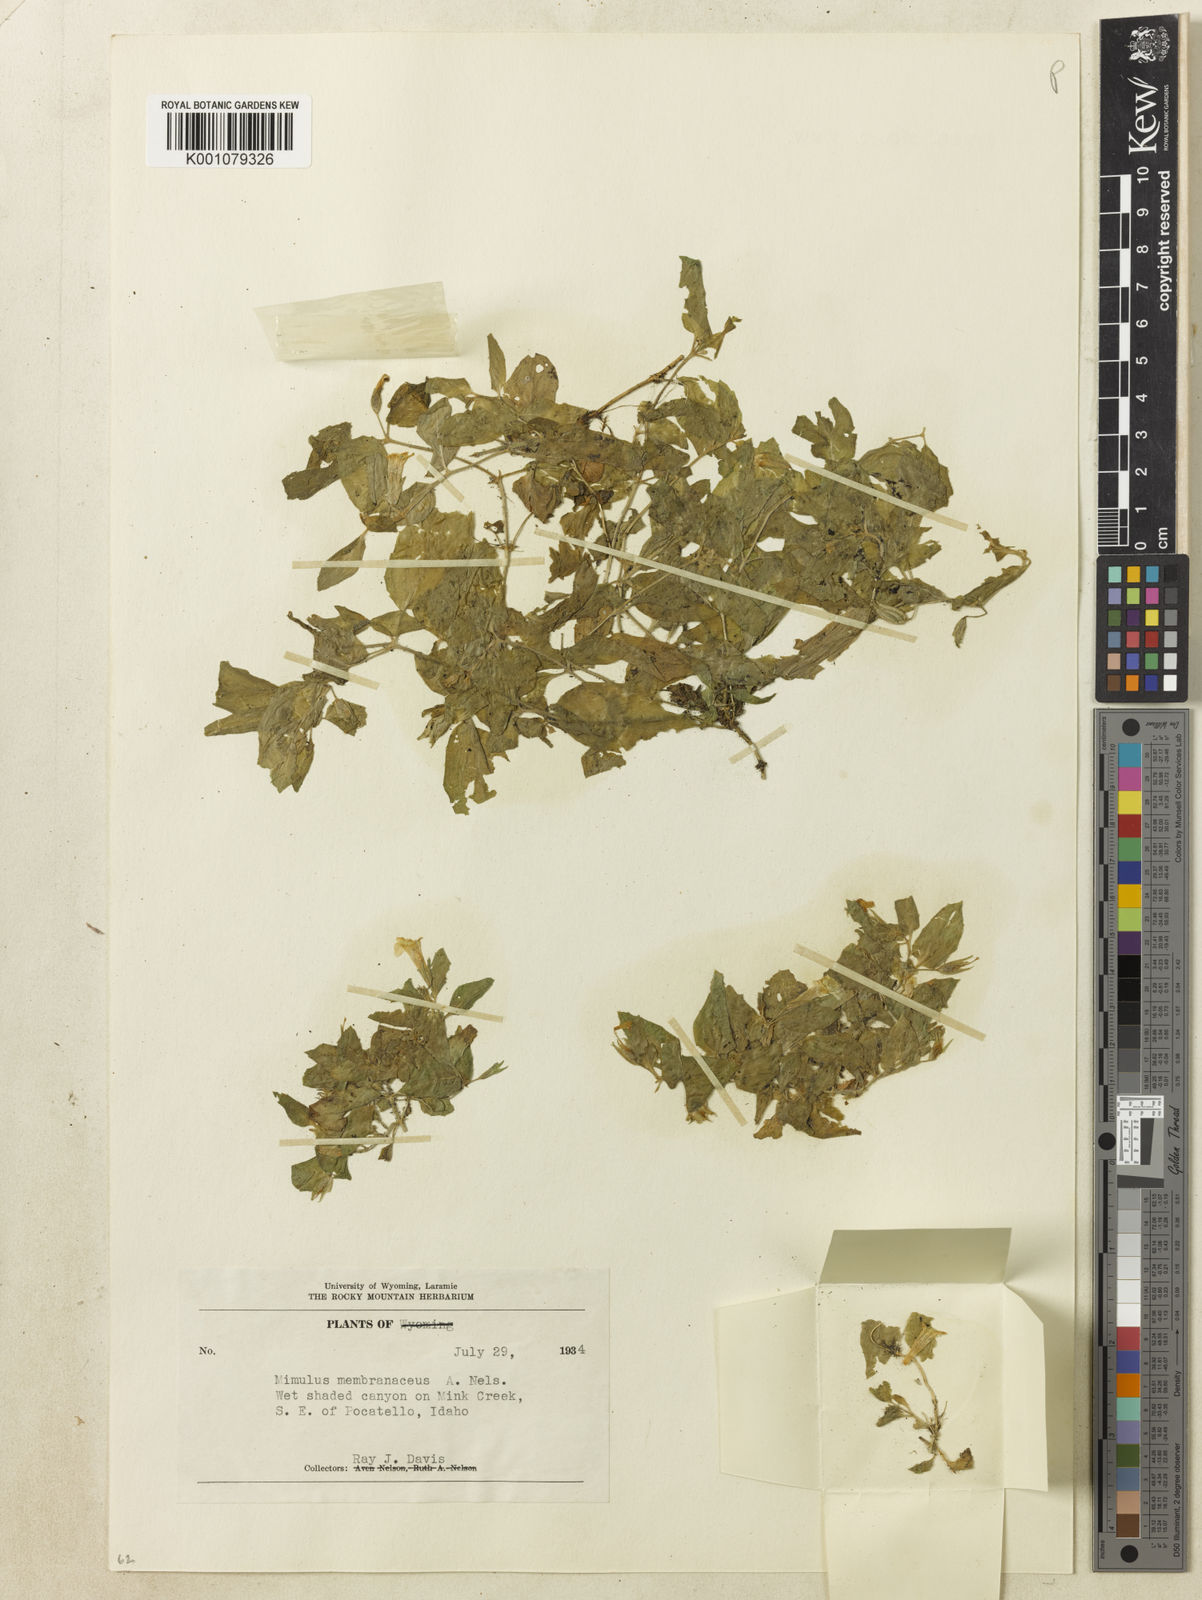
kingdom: Plantae
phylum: Tracheophyta
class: Magnoliopsida
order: Lamiales
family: Phrymaceae
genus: Erythranthe
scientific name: Erythranthe floribunda
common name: Floriferous monkeyflower
